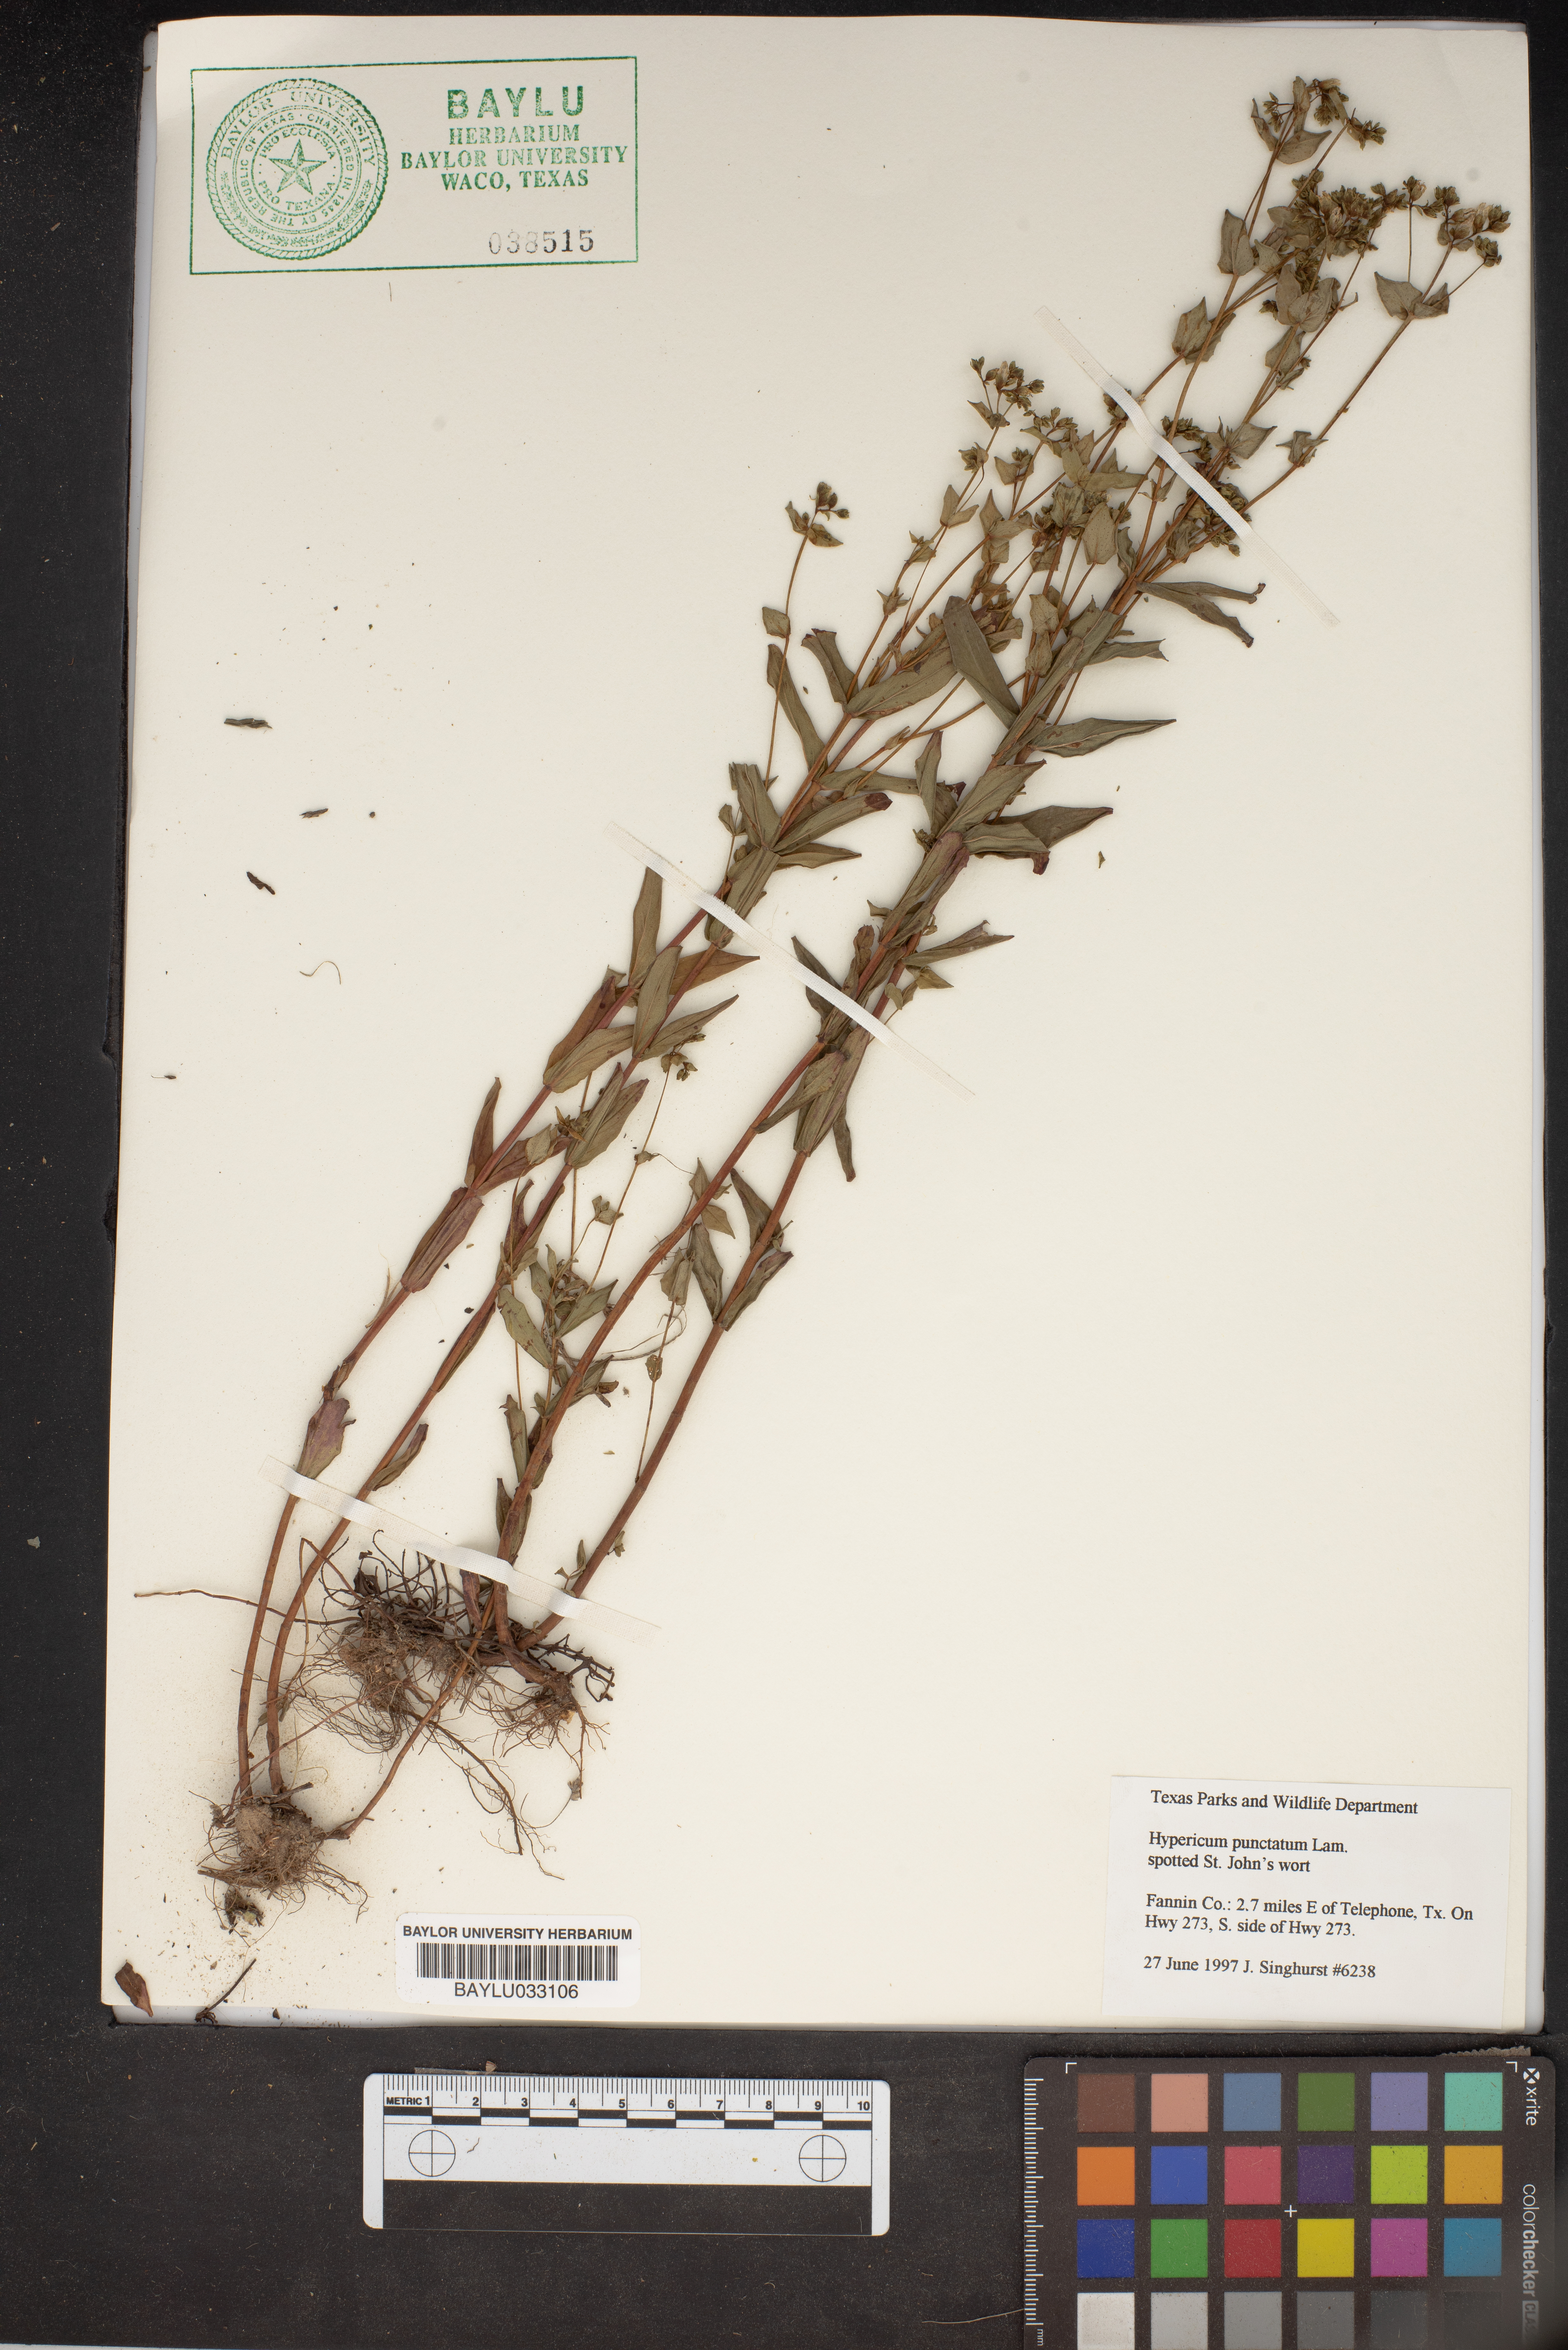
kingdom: Plantae
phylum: Tracheophyta
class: Magnoliopsida
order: Malpighiales
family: Hypericaceae
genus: Hypericum
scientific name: Hypericum punctatum
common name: Spotted st. john's-wort
